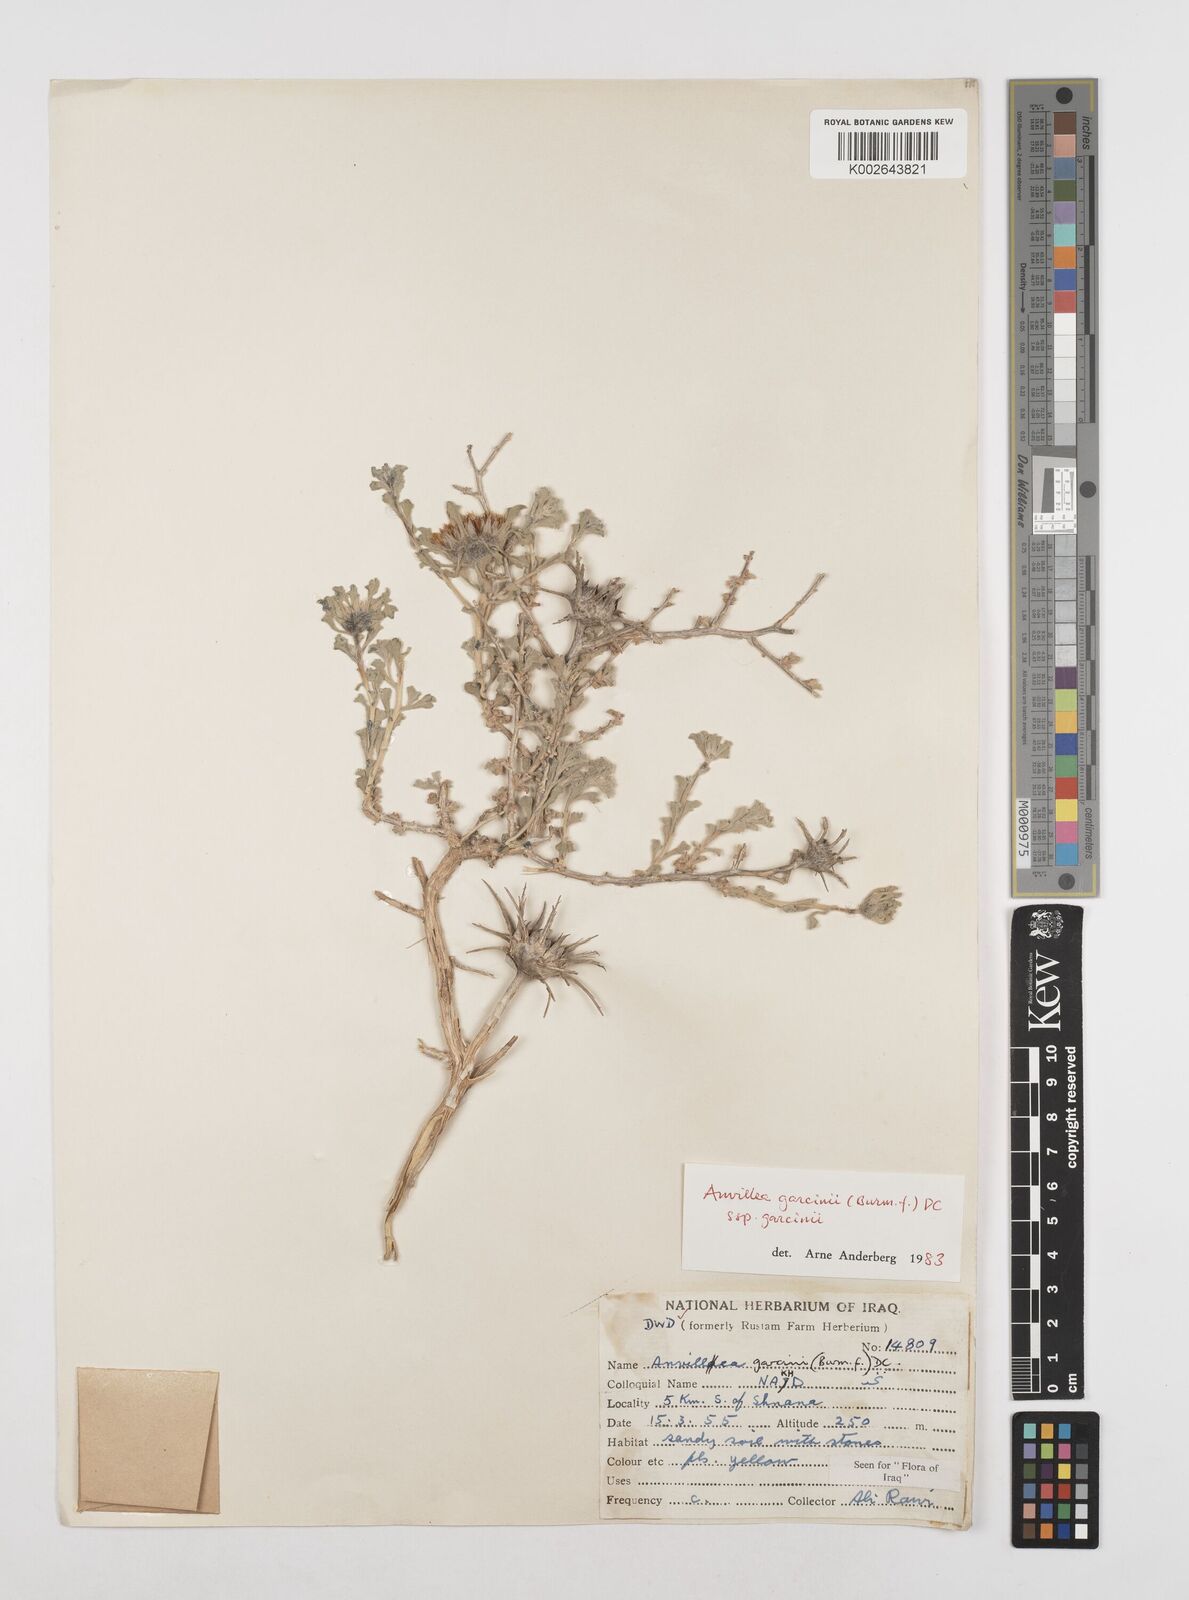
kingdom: Plantae
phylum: Tracheophyta
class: Magnoliopsida
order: Asterales
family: Asteraceae
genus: Anvillea
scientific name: Anvillea
